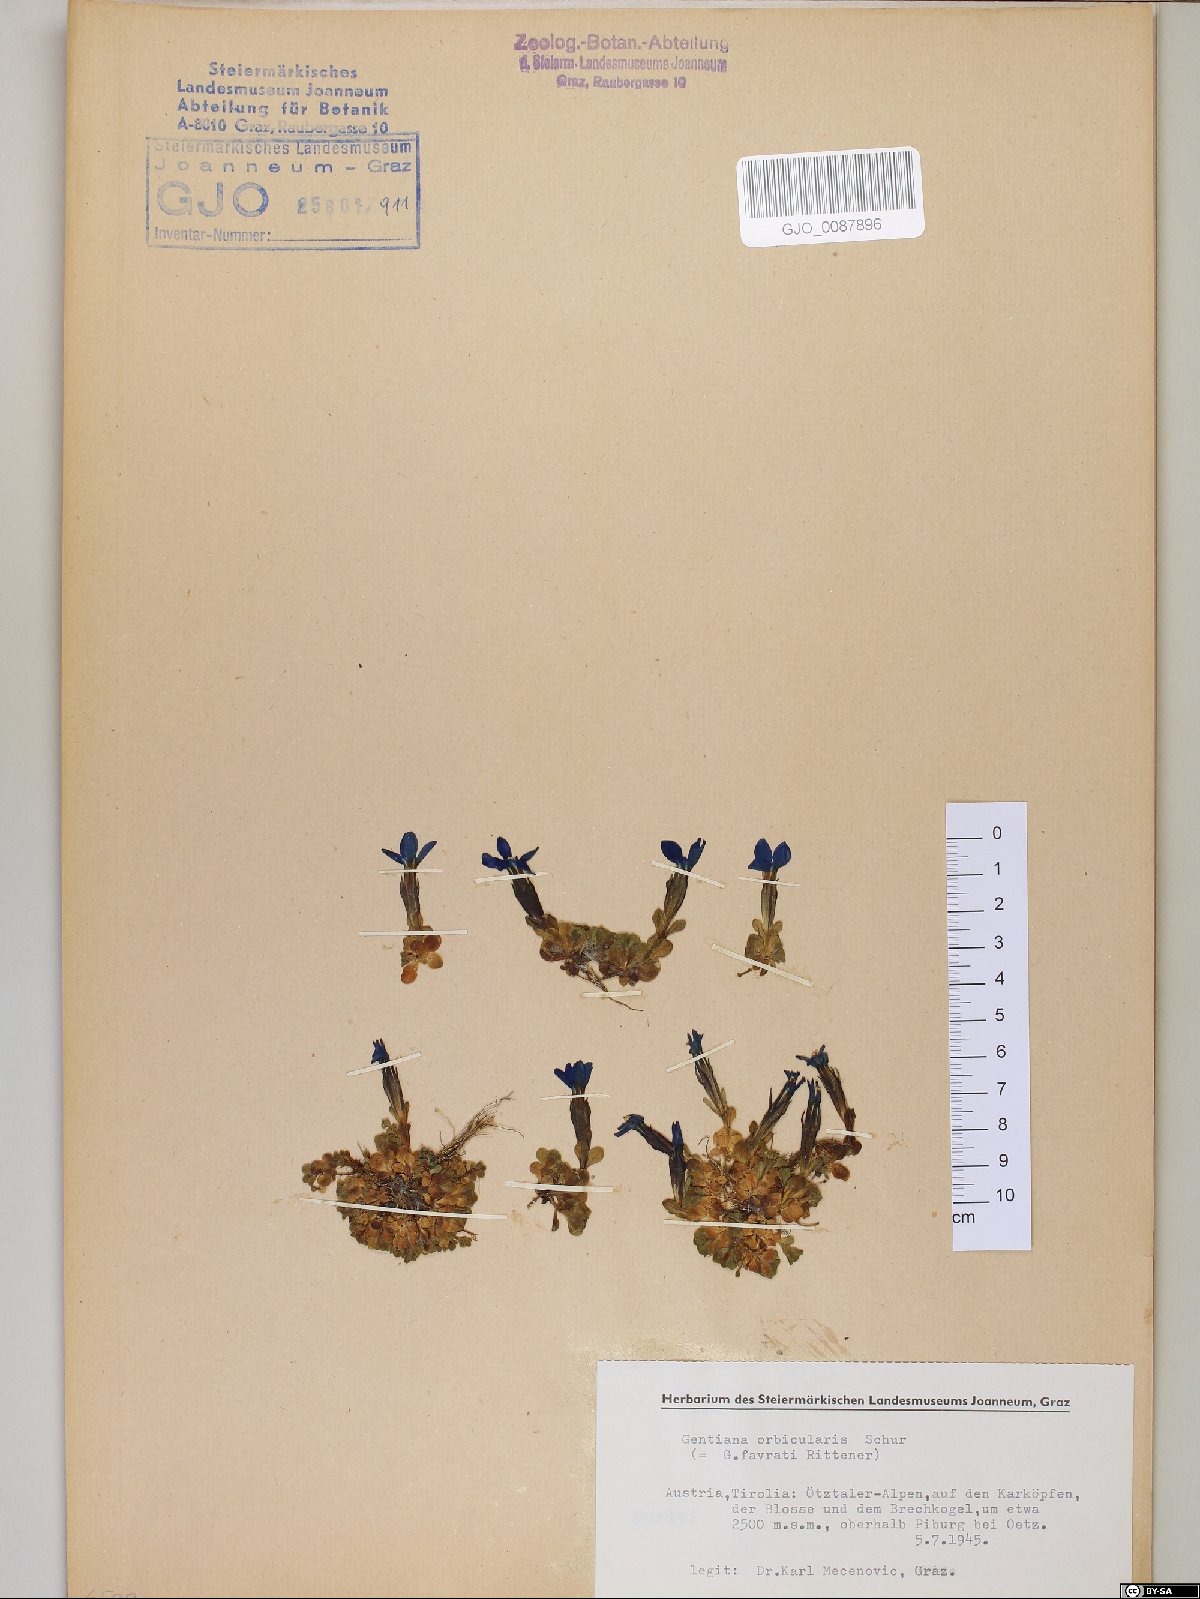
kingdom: Plantae
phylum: Tracheophyta
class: Magnoliopsida
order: Gentianales
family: Gentianaceae
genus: Gentiana
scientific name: Gentiana orbicularis
